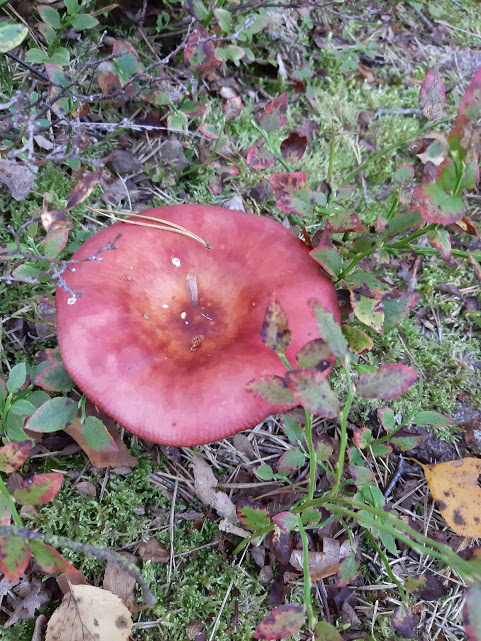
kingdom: Fungi
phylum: Basidiomycota
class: Agaricomycetes
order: Russulales
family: Russulaceae
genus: Russula
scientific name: Russula
